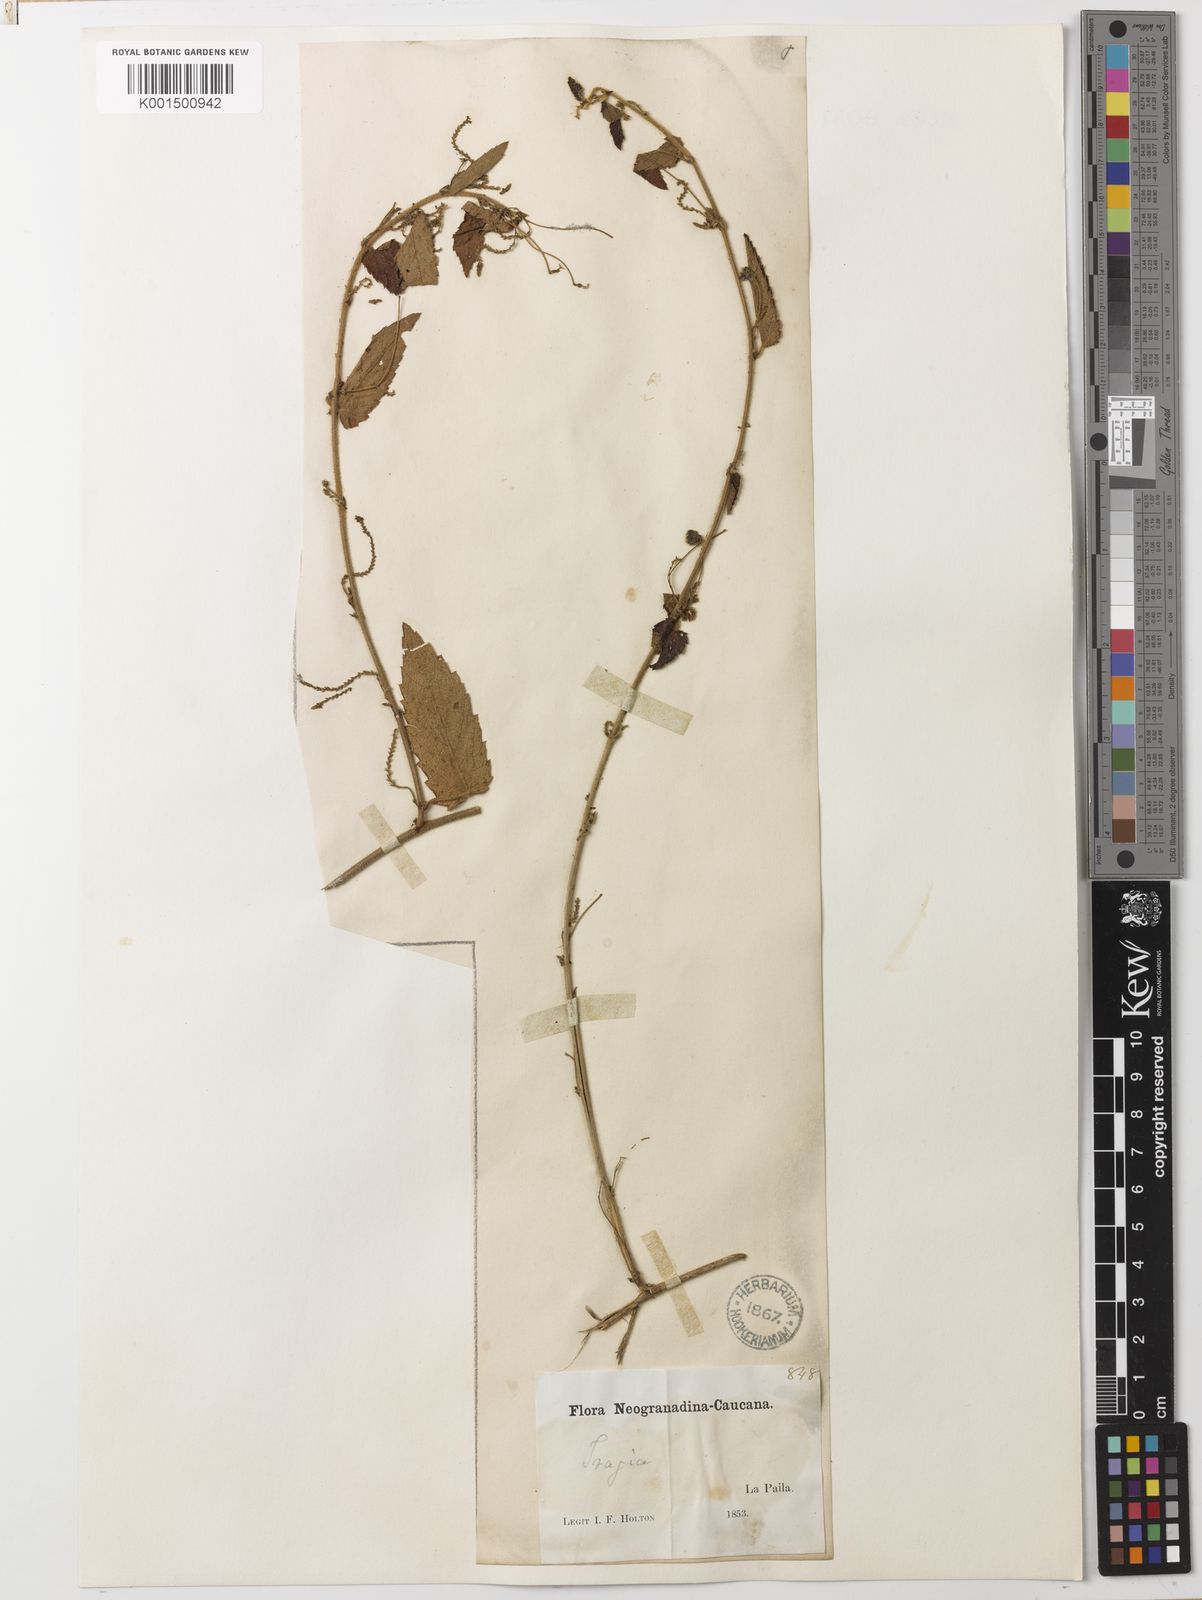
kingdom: Plantae
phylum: Tracheophyta
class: Magnoliopsida
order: Malpighiales
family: Euphorbiaceae
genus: Tragia
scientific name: Tragia volubilis
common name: Twining cow-itch
